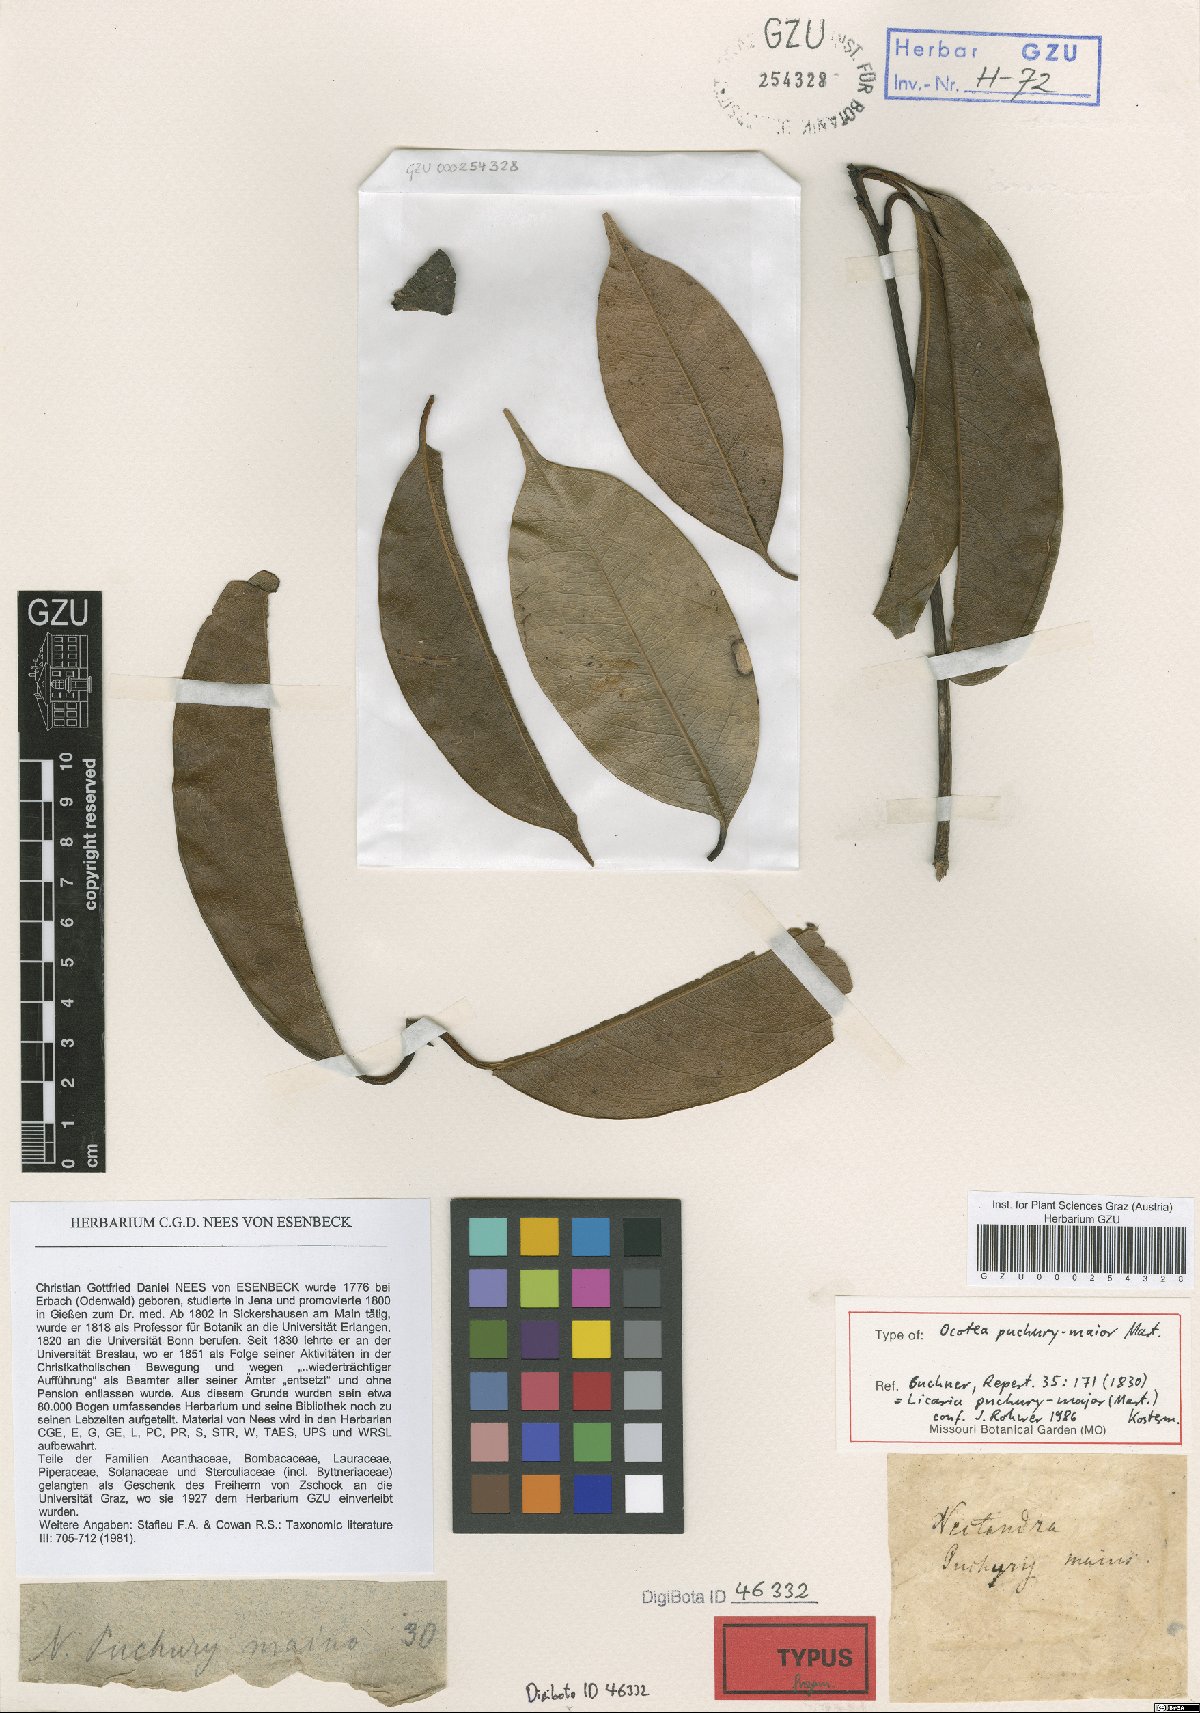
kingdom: Plantae
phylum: Tracheophyta
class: Magnoliopsida
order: Laurales
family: Lauraceae
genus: Aniba
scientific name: Aniba puchury-minor
